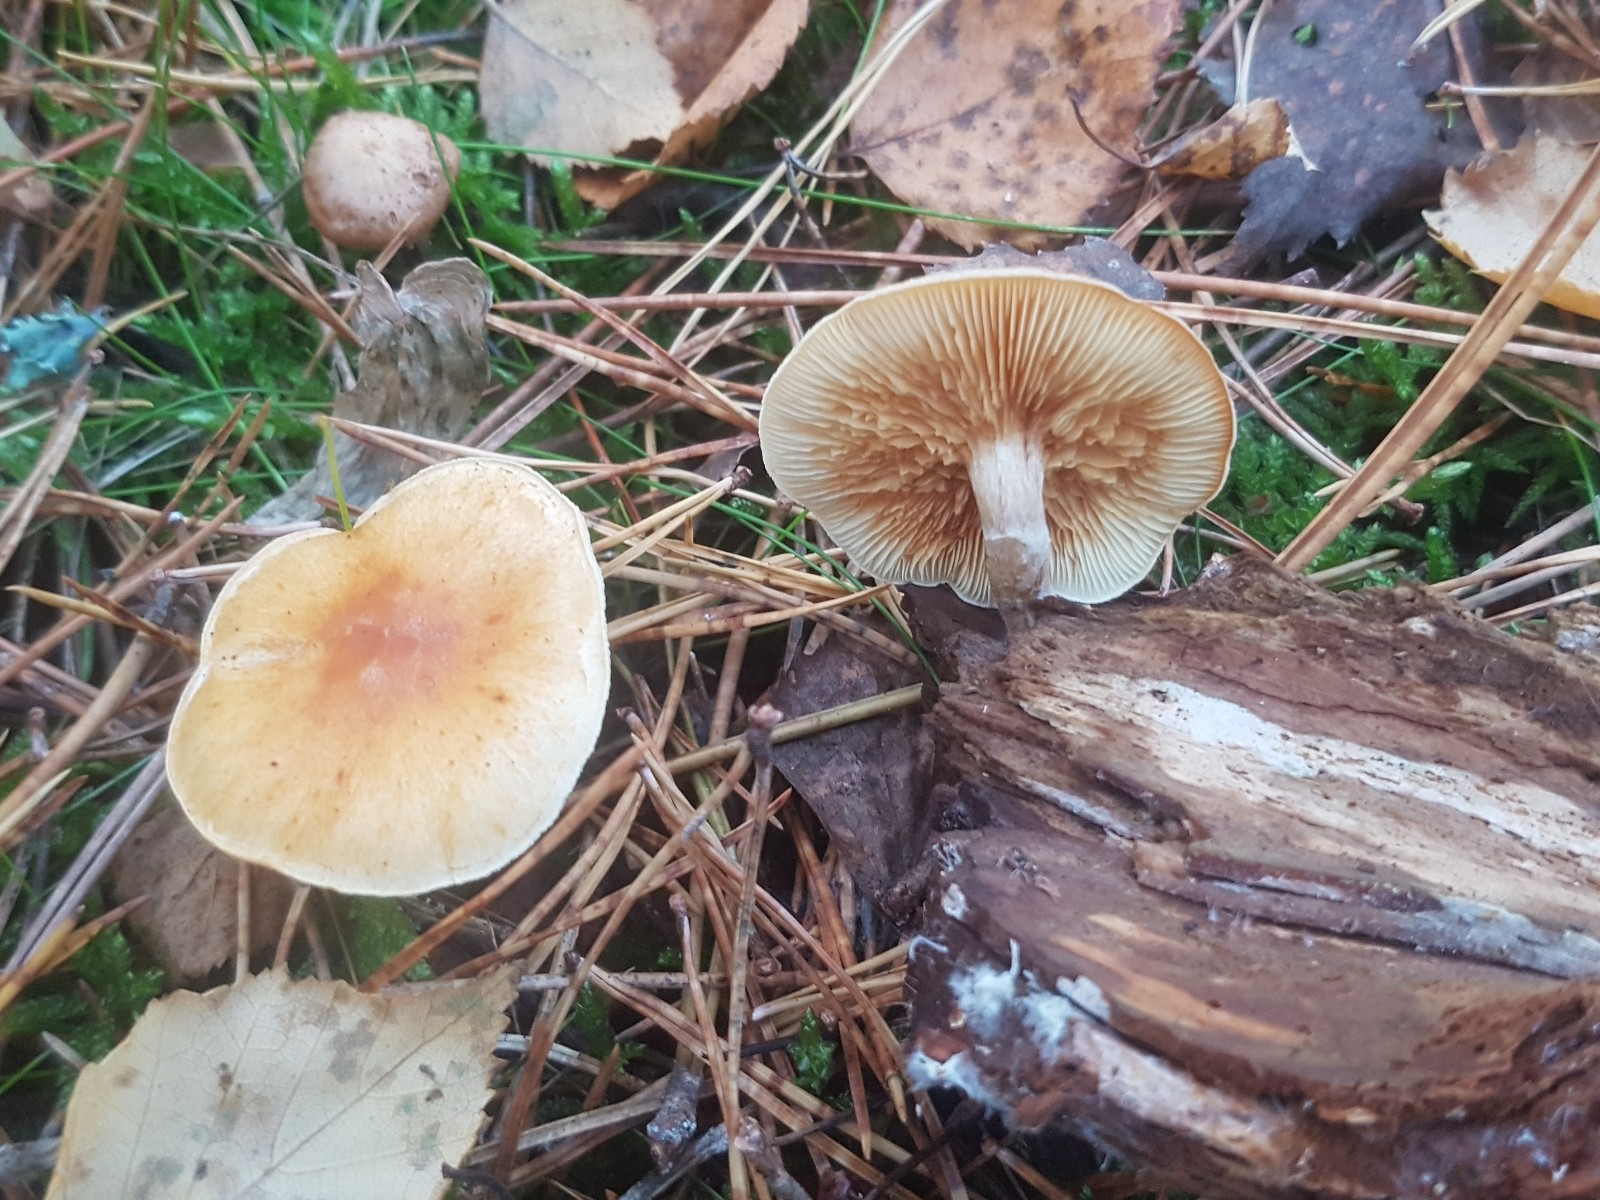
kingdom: Fungi
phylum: Basidiomycota
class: Agaricomycetes
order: Agaricales
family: Hymenogastraceae
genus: Gymnopilus
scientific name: Gymnopilus penetrans
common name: plettet flammehat
